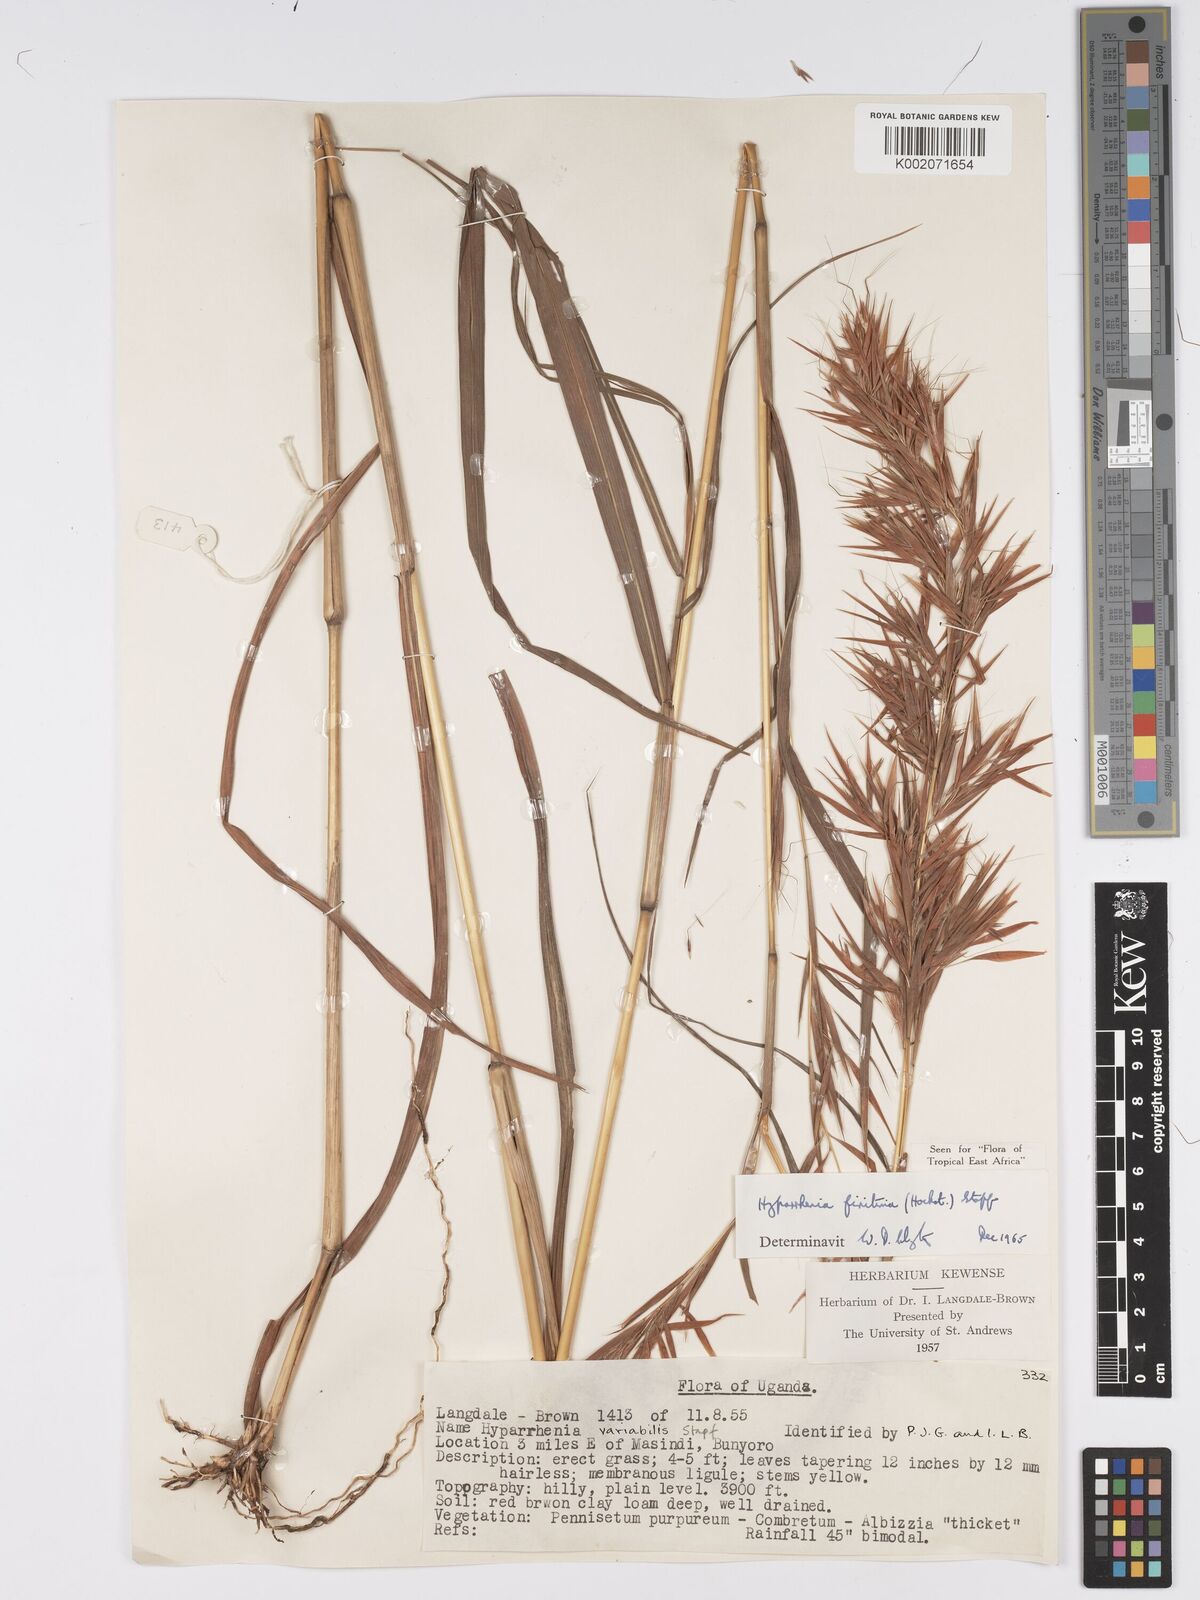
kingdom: Plantae
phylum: Tracheophyta
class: Liliopsida
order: Poales
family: Poaceae
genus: Hyparrhenia
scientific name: Hyparrhenia finitima
